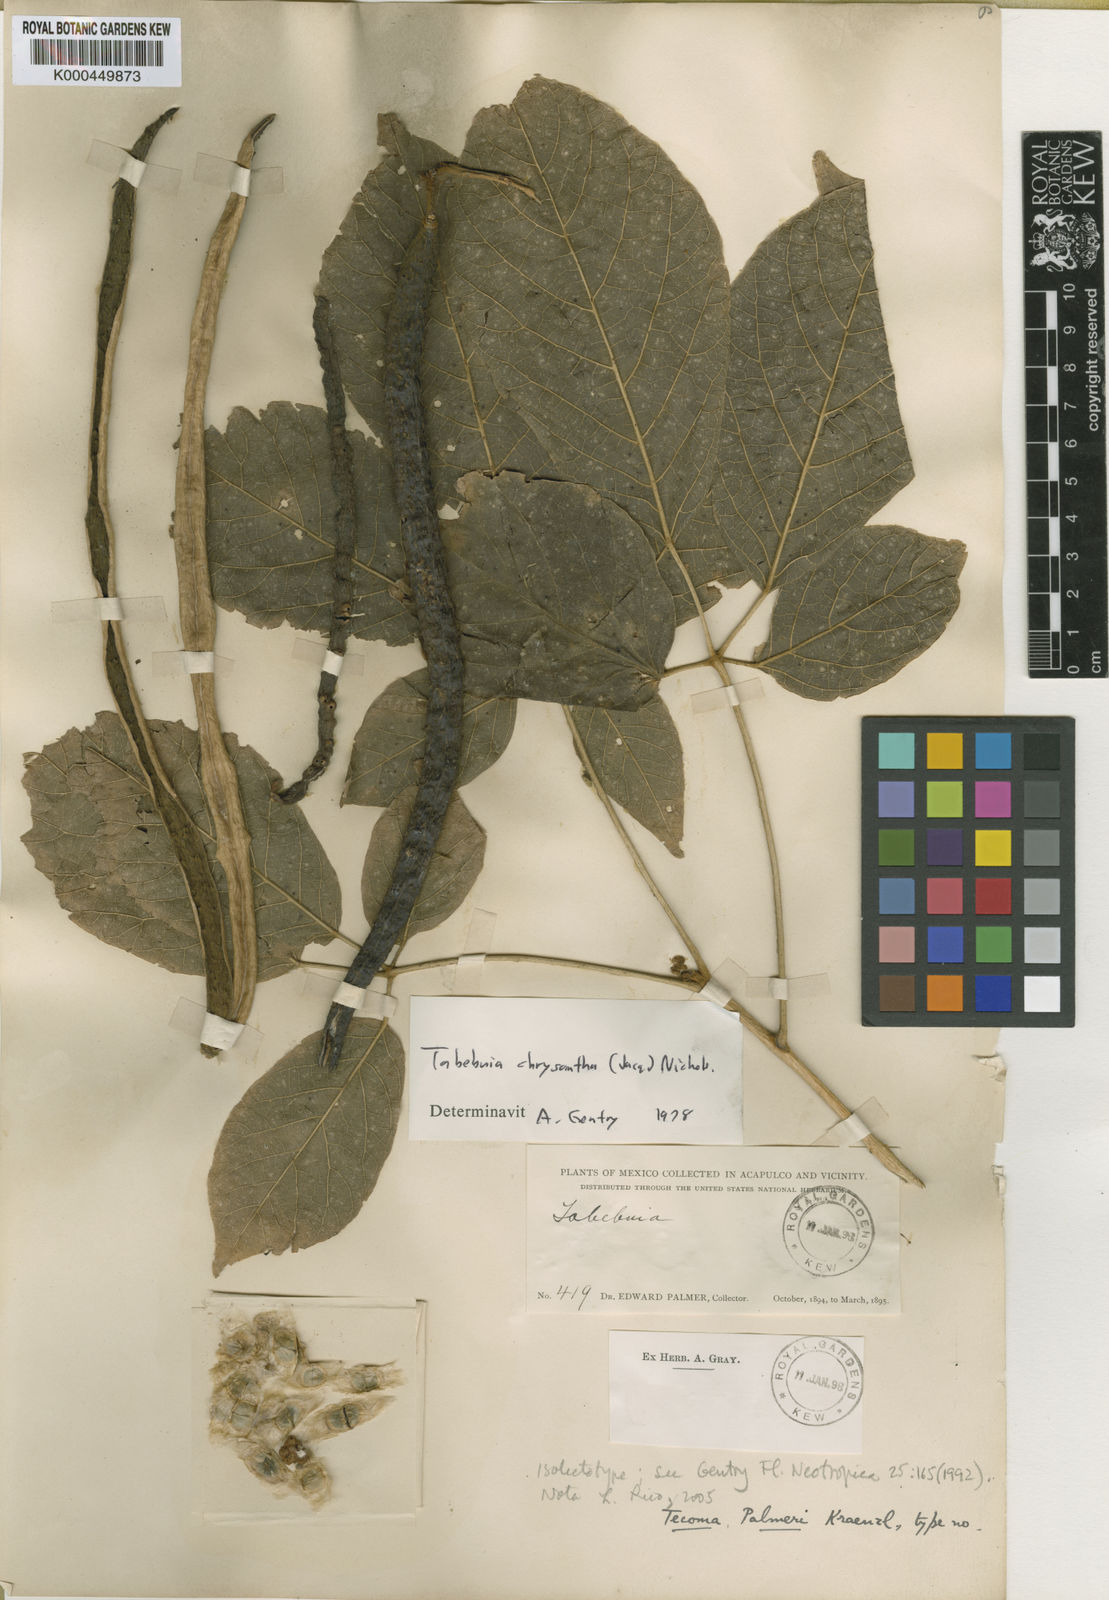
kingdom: Plantae
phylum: Tracheophyta
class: Magnoliopsida
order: Lamiales
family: Bignoniaceae
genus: Handroanthus
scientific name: Handroanthus chrysanthus
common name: Trumpet trees
